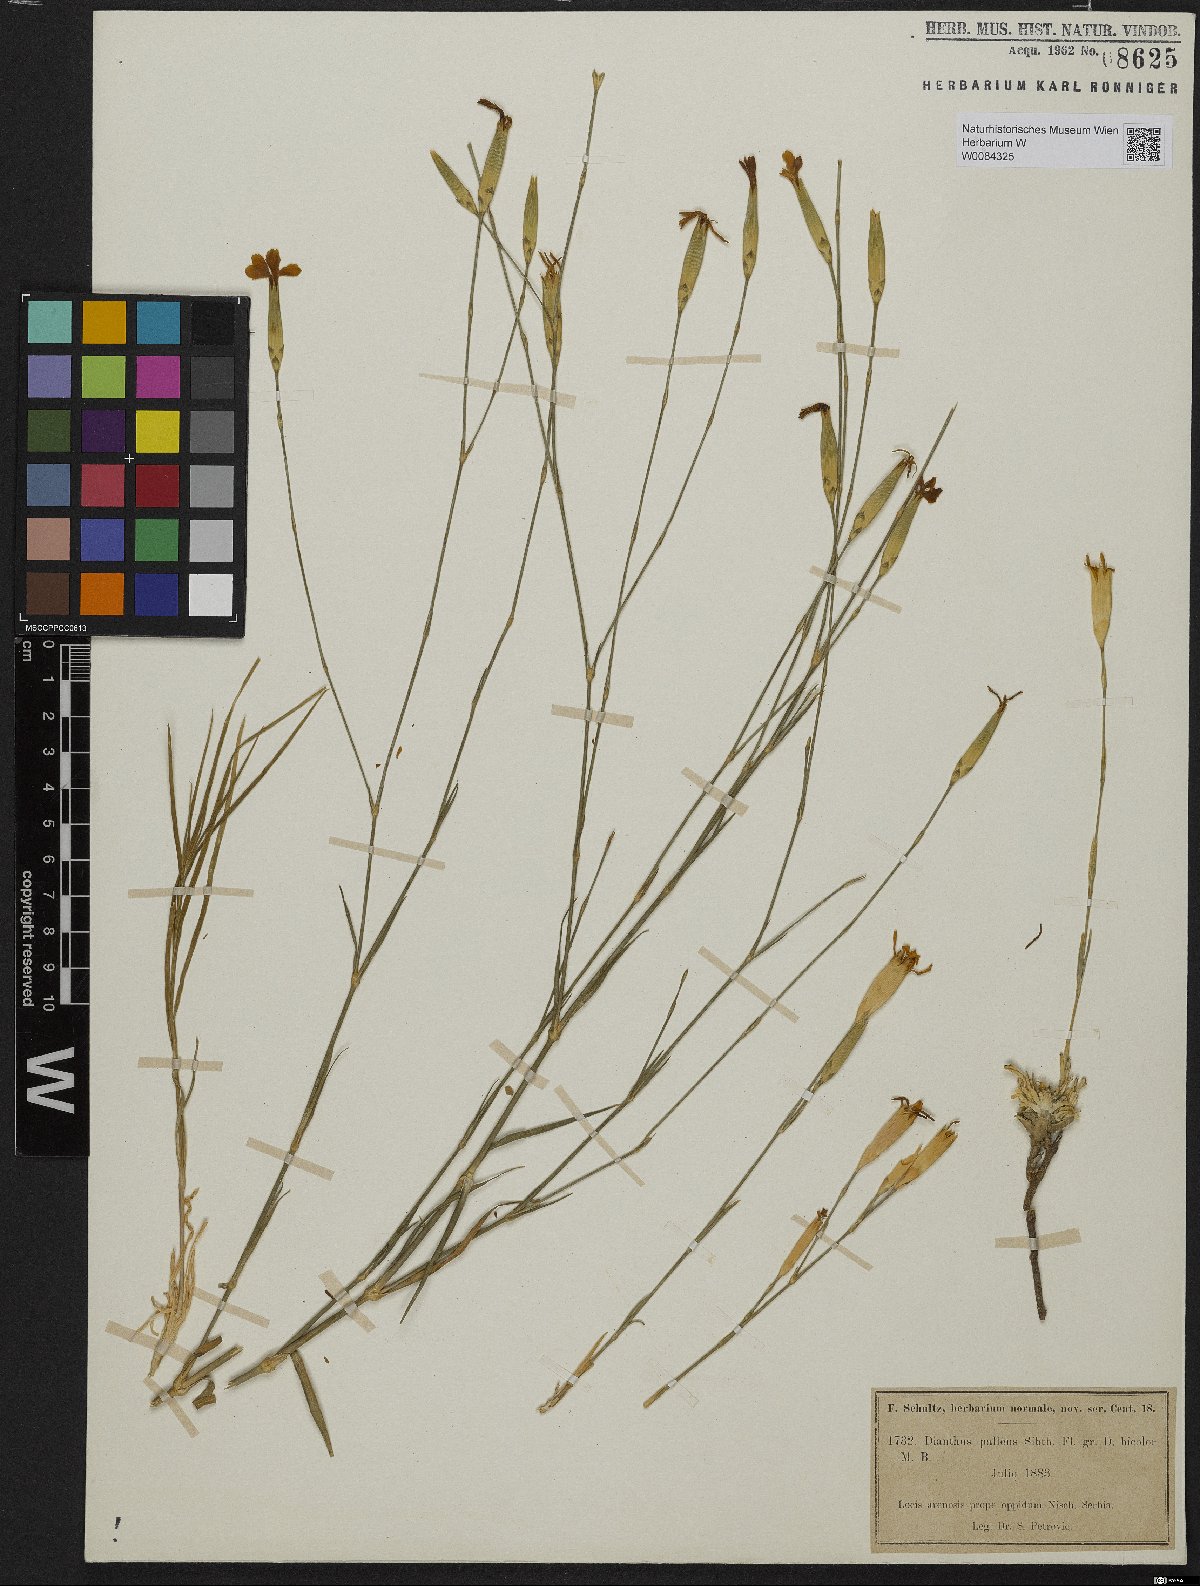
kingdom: Plantae
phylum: Tracheophyta
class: Magnoliopsida
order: Caryophyllales
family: Caryophyllaceae
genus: Dianthus
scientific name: Dianthus monadelphus
